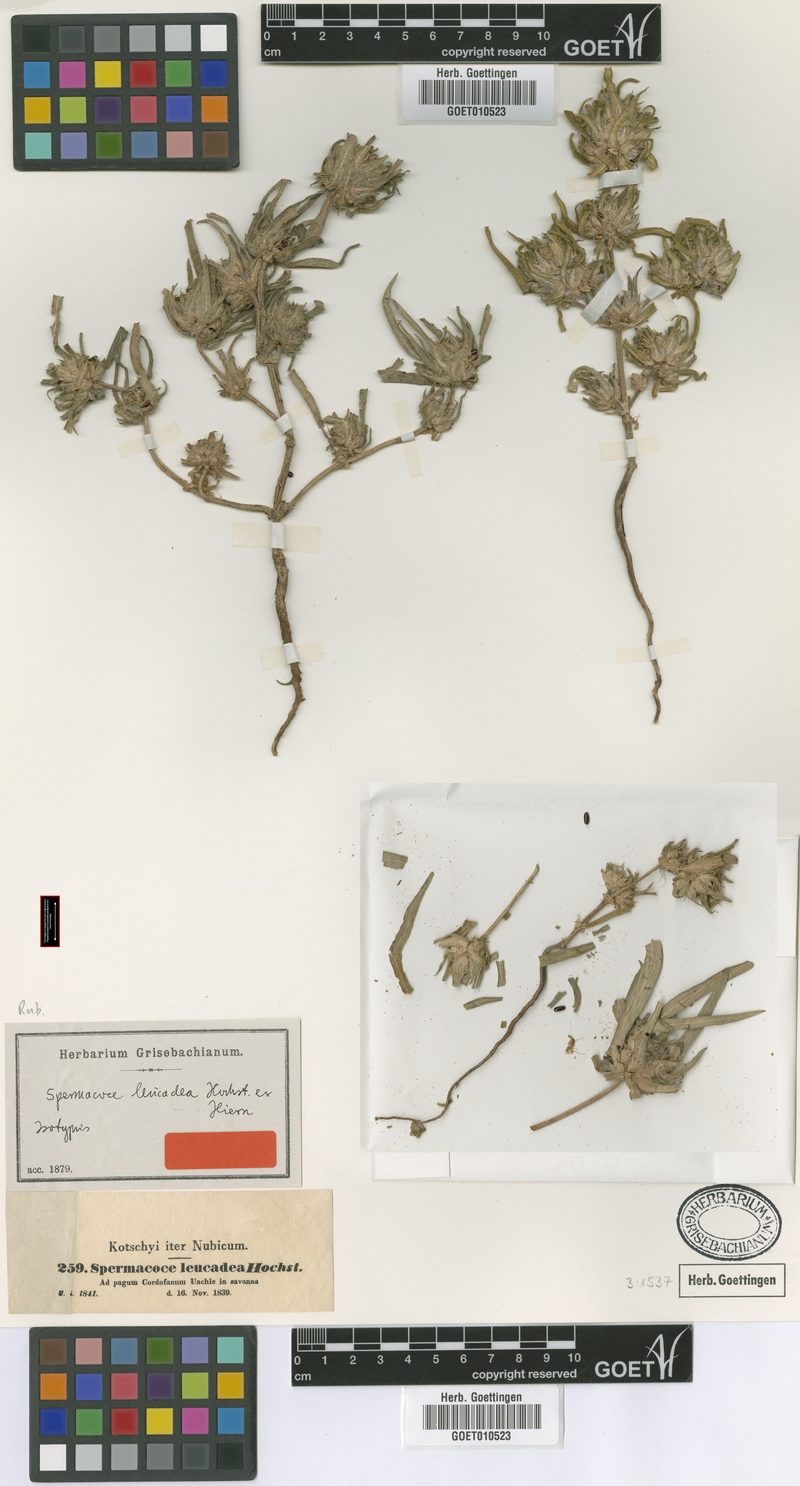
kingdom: Plantae
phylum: Tracheophyta
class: Magnoliopsida
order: Gentianales
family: Rubiaceae
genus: Spermacoce
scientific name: Spermacoce stachydea
